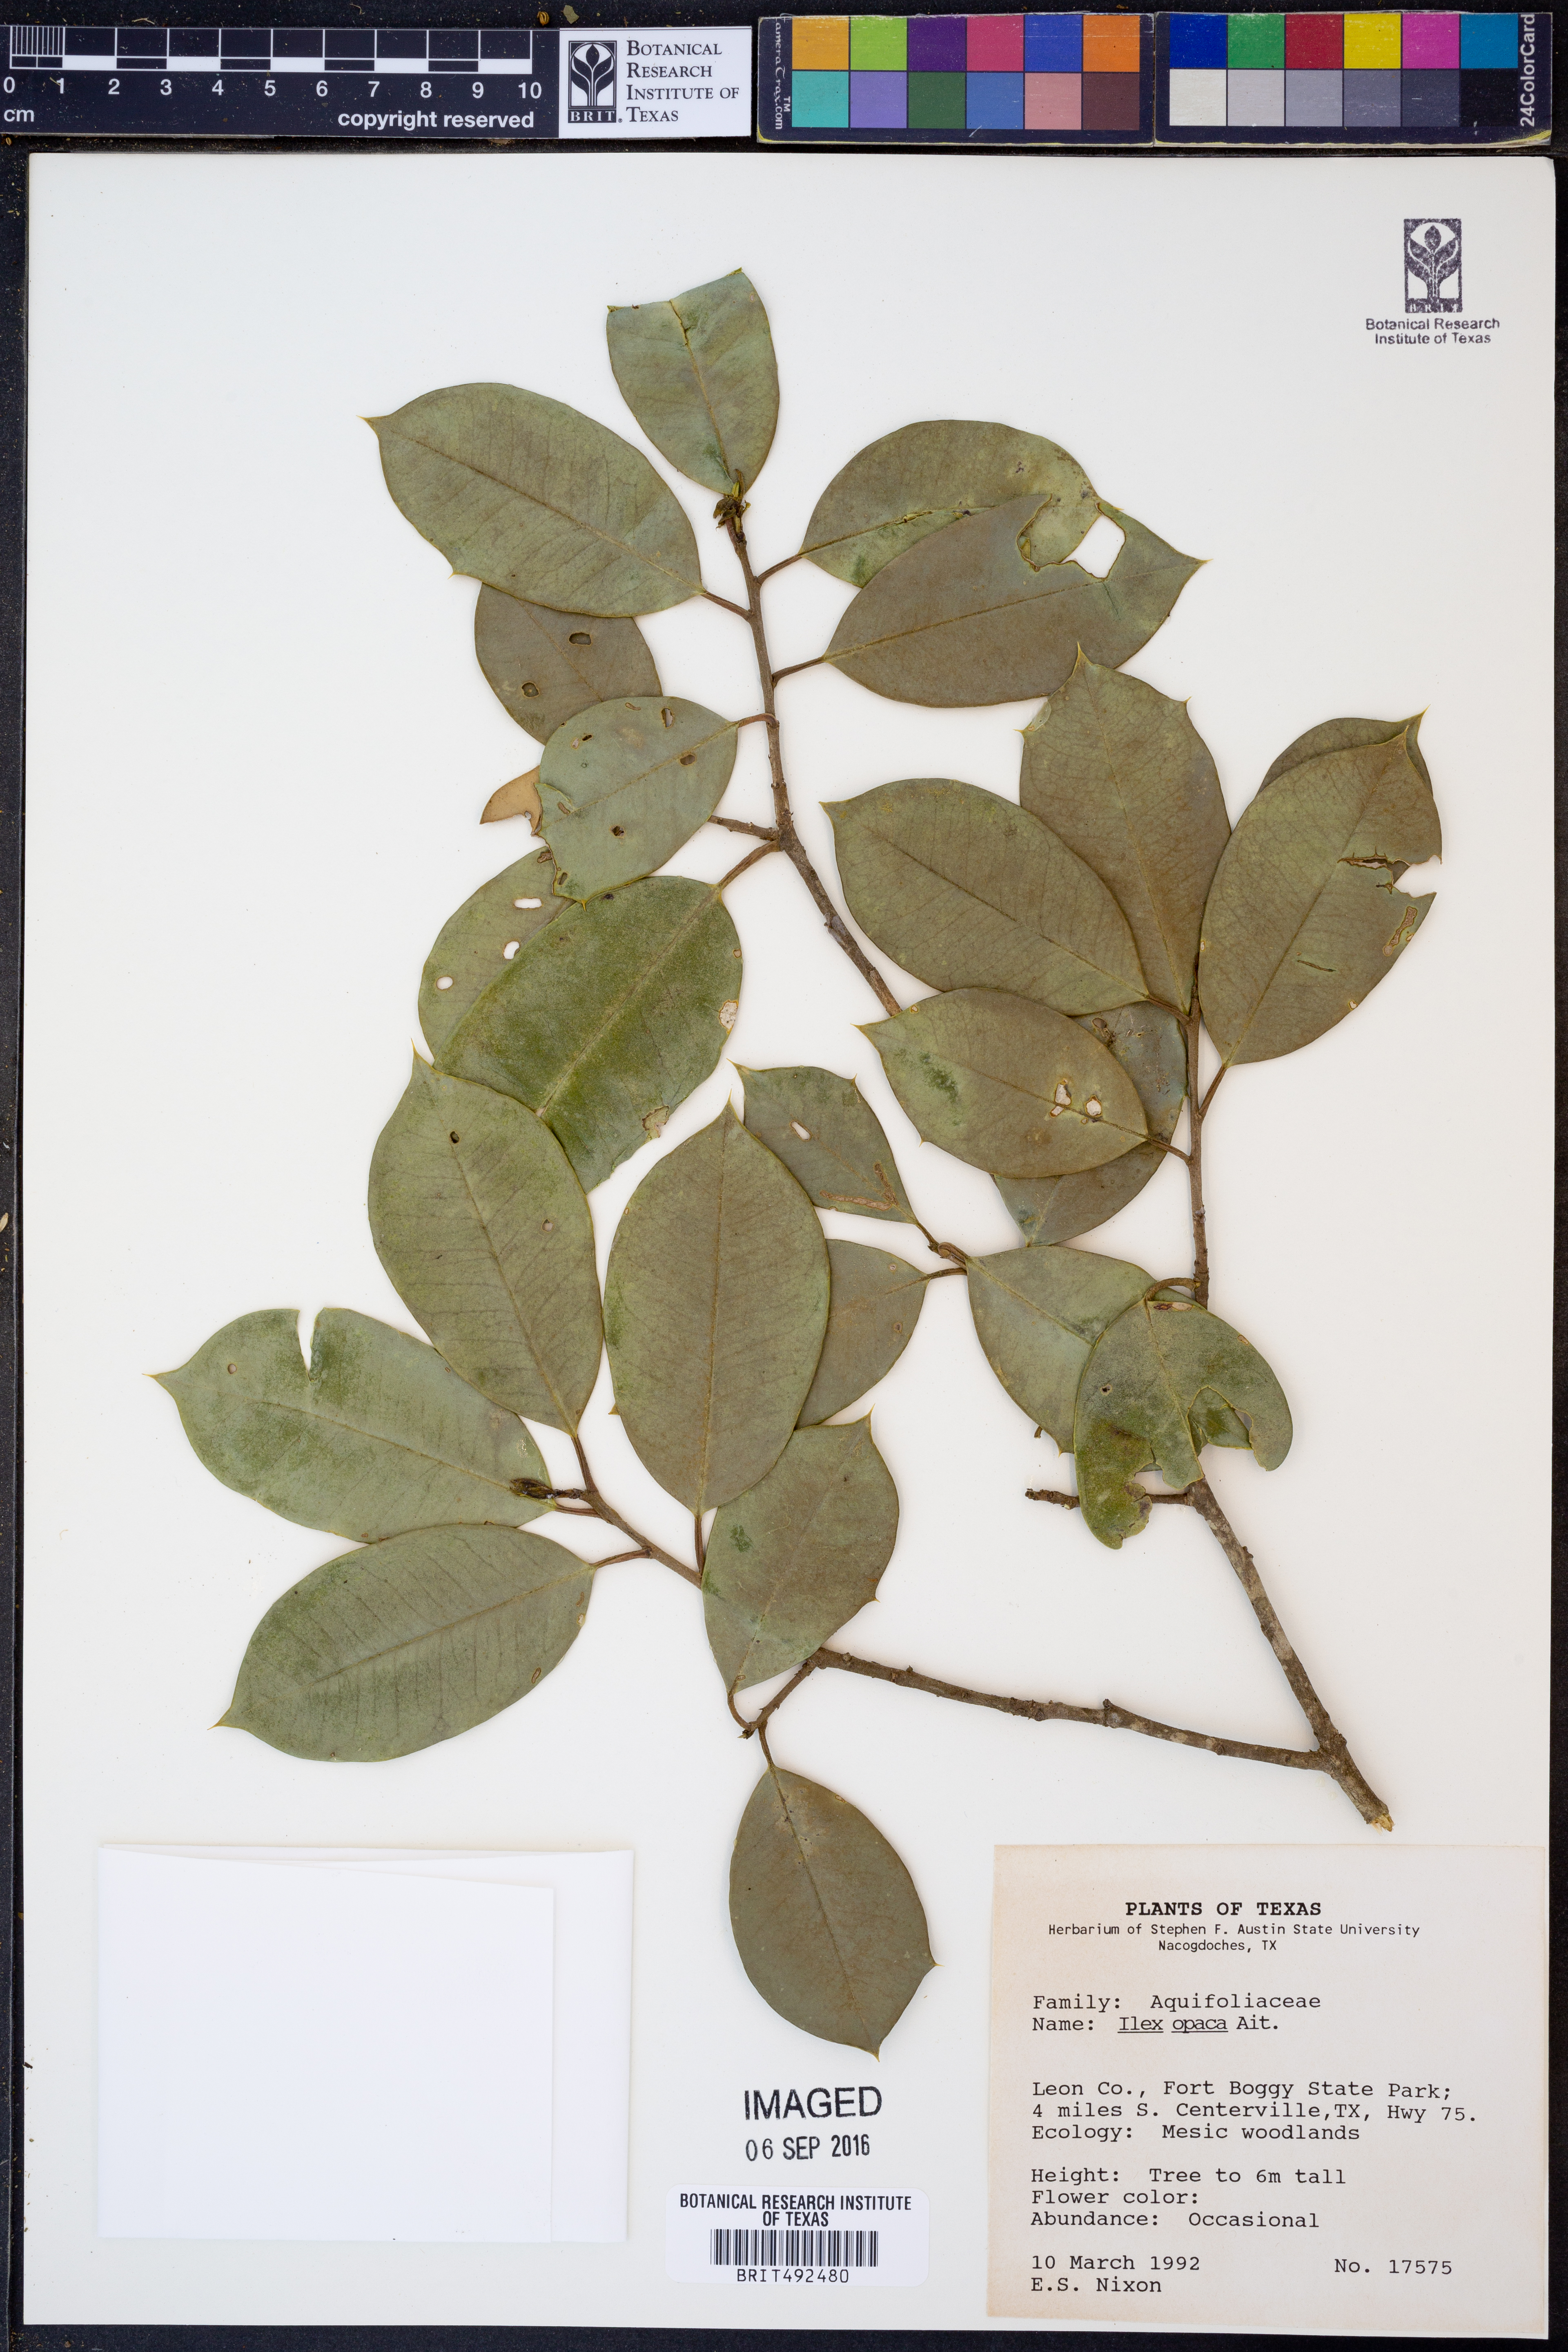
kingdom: Plantae
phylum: Tracheophyta
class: Magnoliopsida
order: Aquifoliales
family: Aquifoliaceae
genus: Ilex
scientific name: Ilex opaca
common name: American holly
